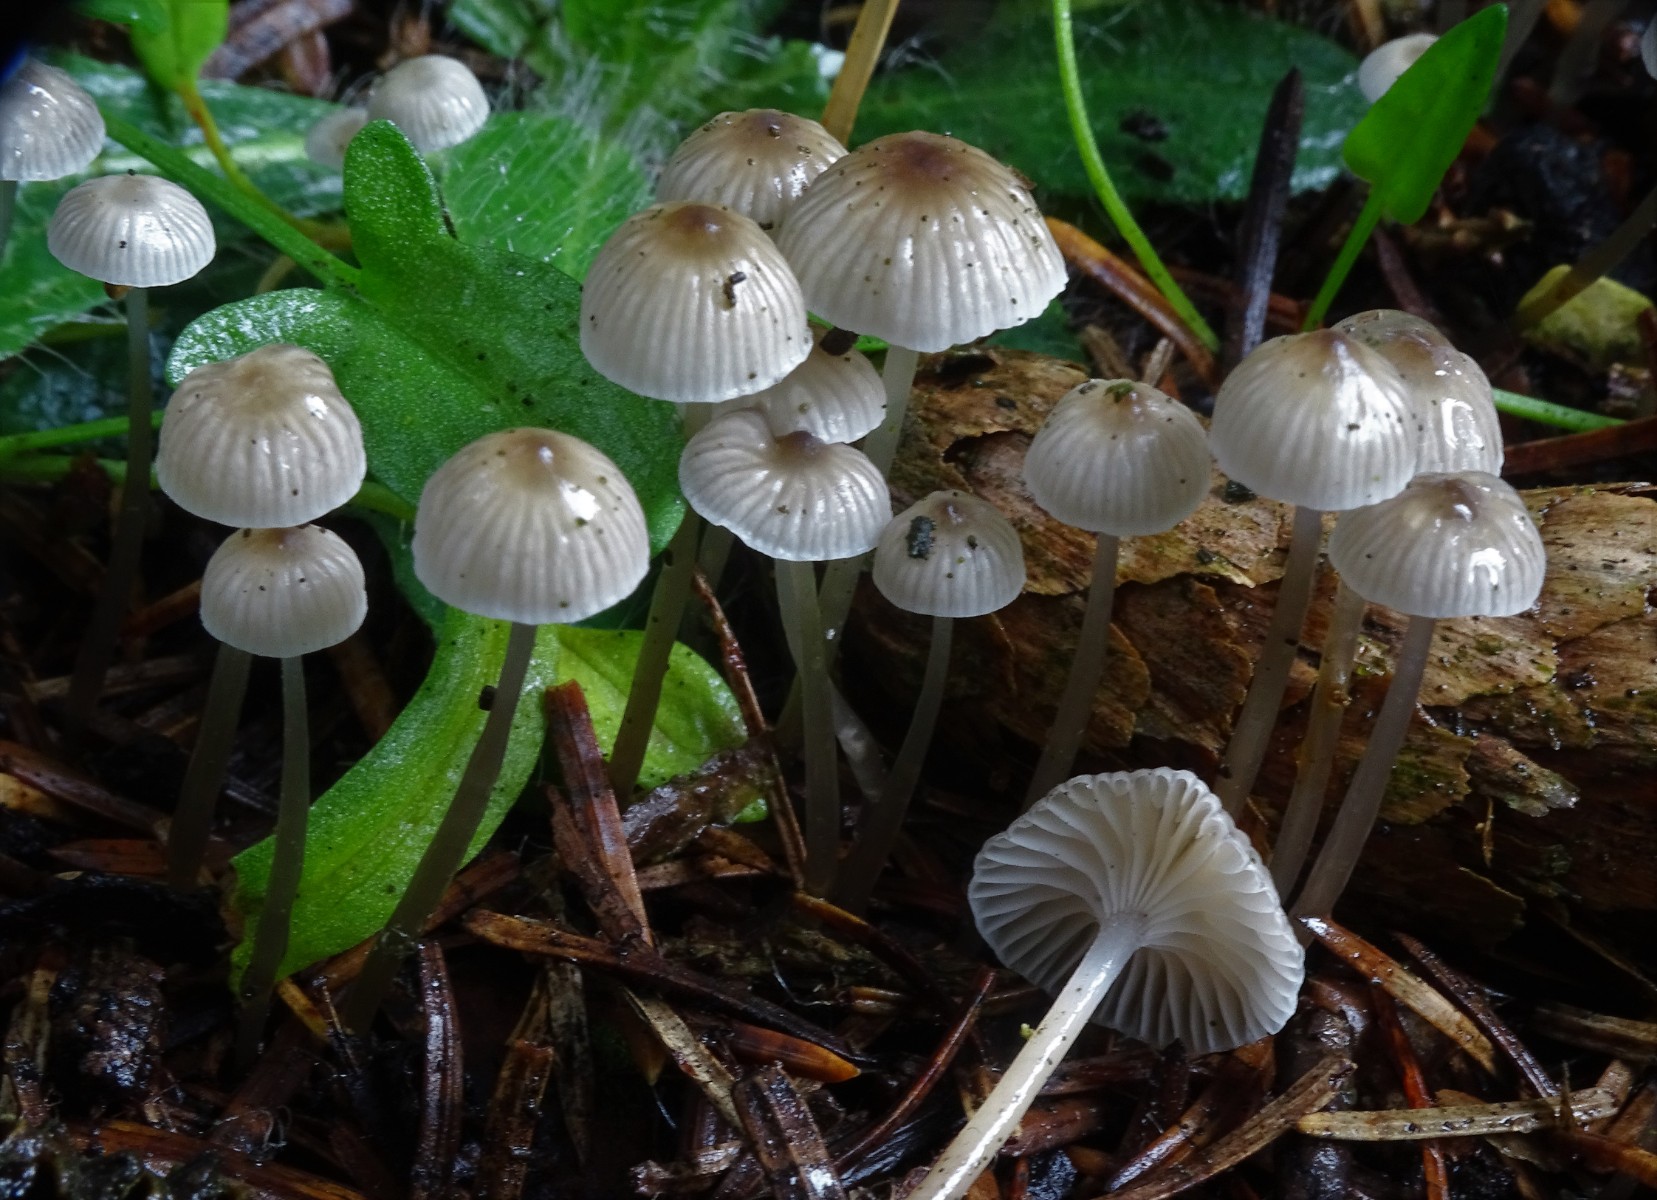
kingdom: Fungi
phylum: Basidiomycota
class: Agaricomycetes
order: Agaricales
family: Mycenaceae
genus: Mycena
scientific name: Mycena clavicularis
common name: fyrre-huesvamp
